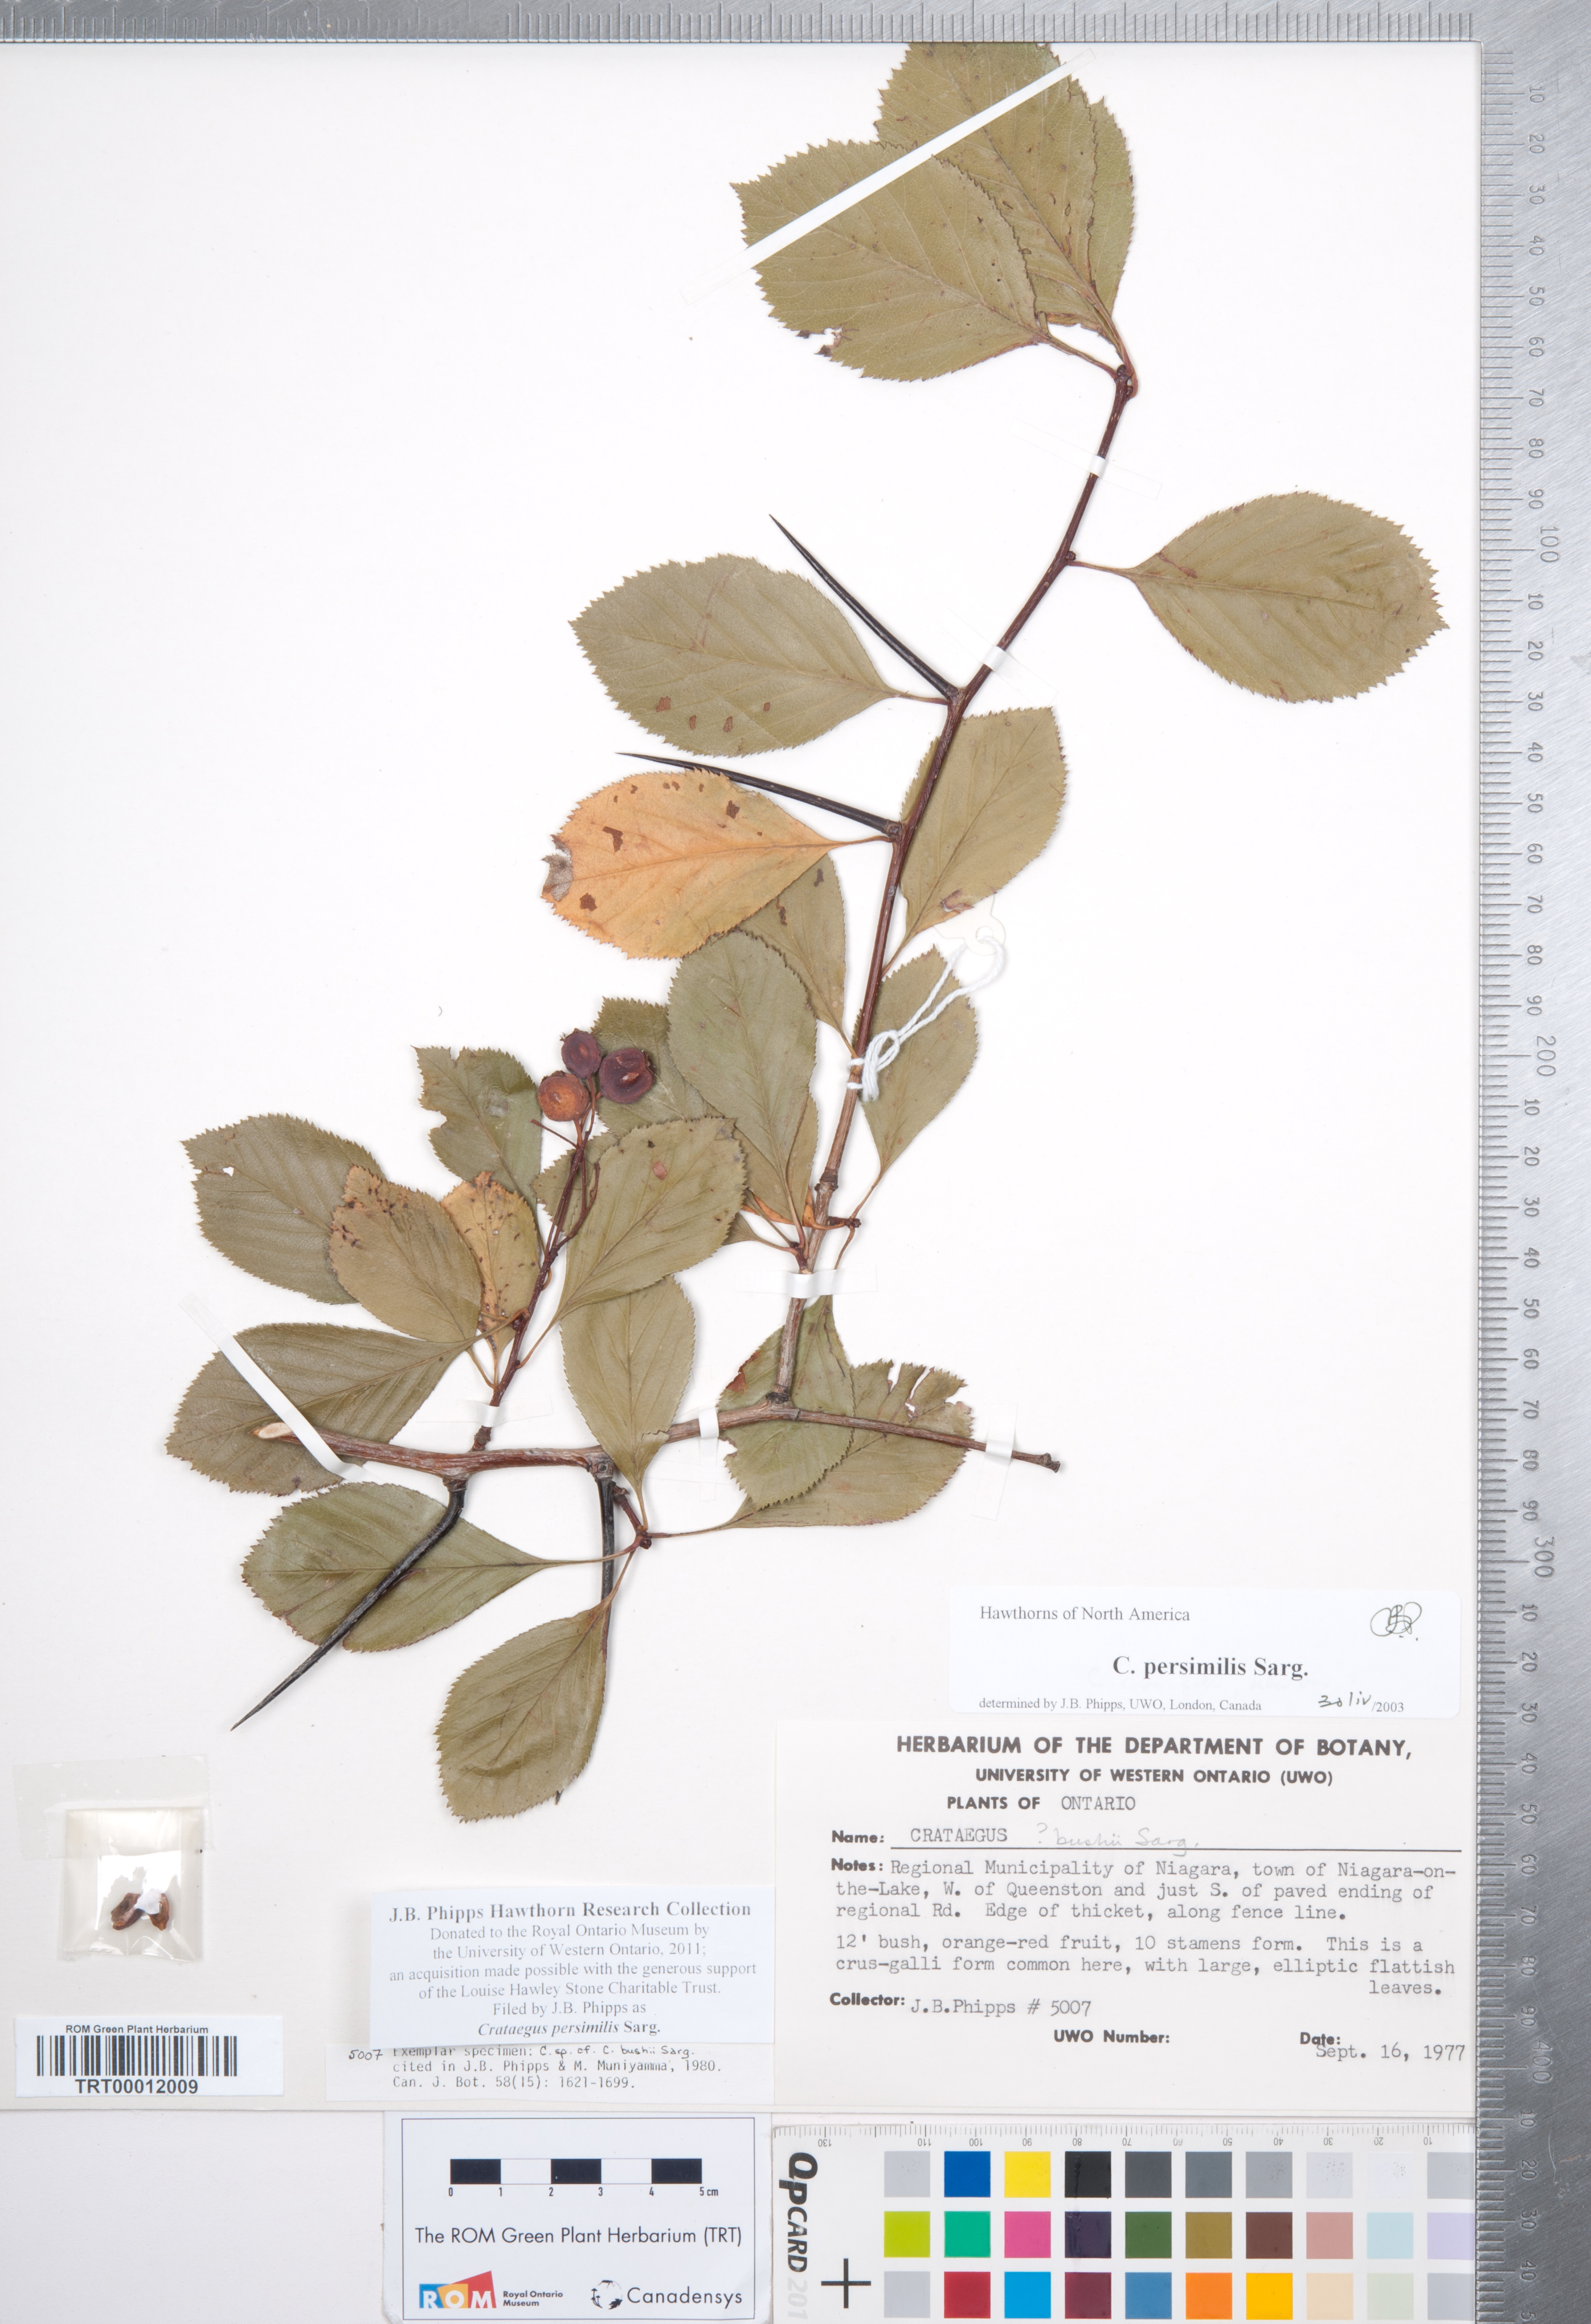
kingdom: Plantae
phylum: Tracheophyta
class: Magnoliopsida
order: Rosales
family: Rosaceae
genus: Crataegus
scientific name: Crataegus persimilis
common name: Broad-leaved cockspurthorn
